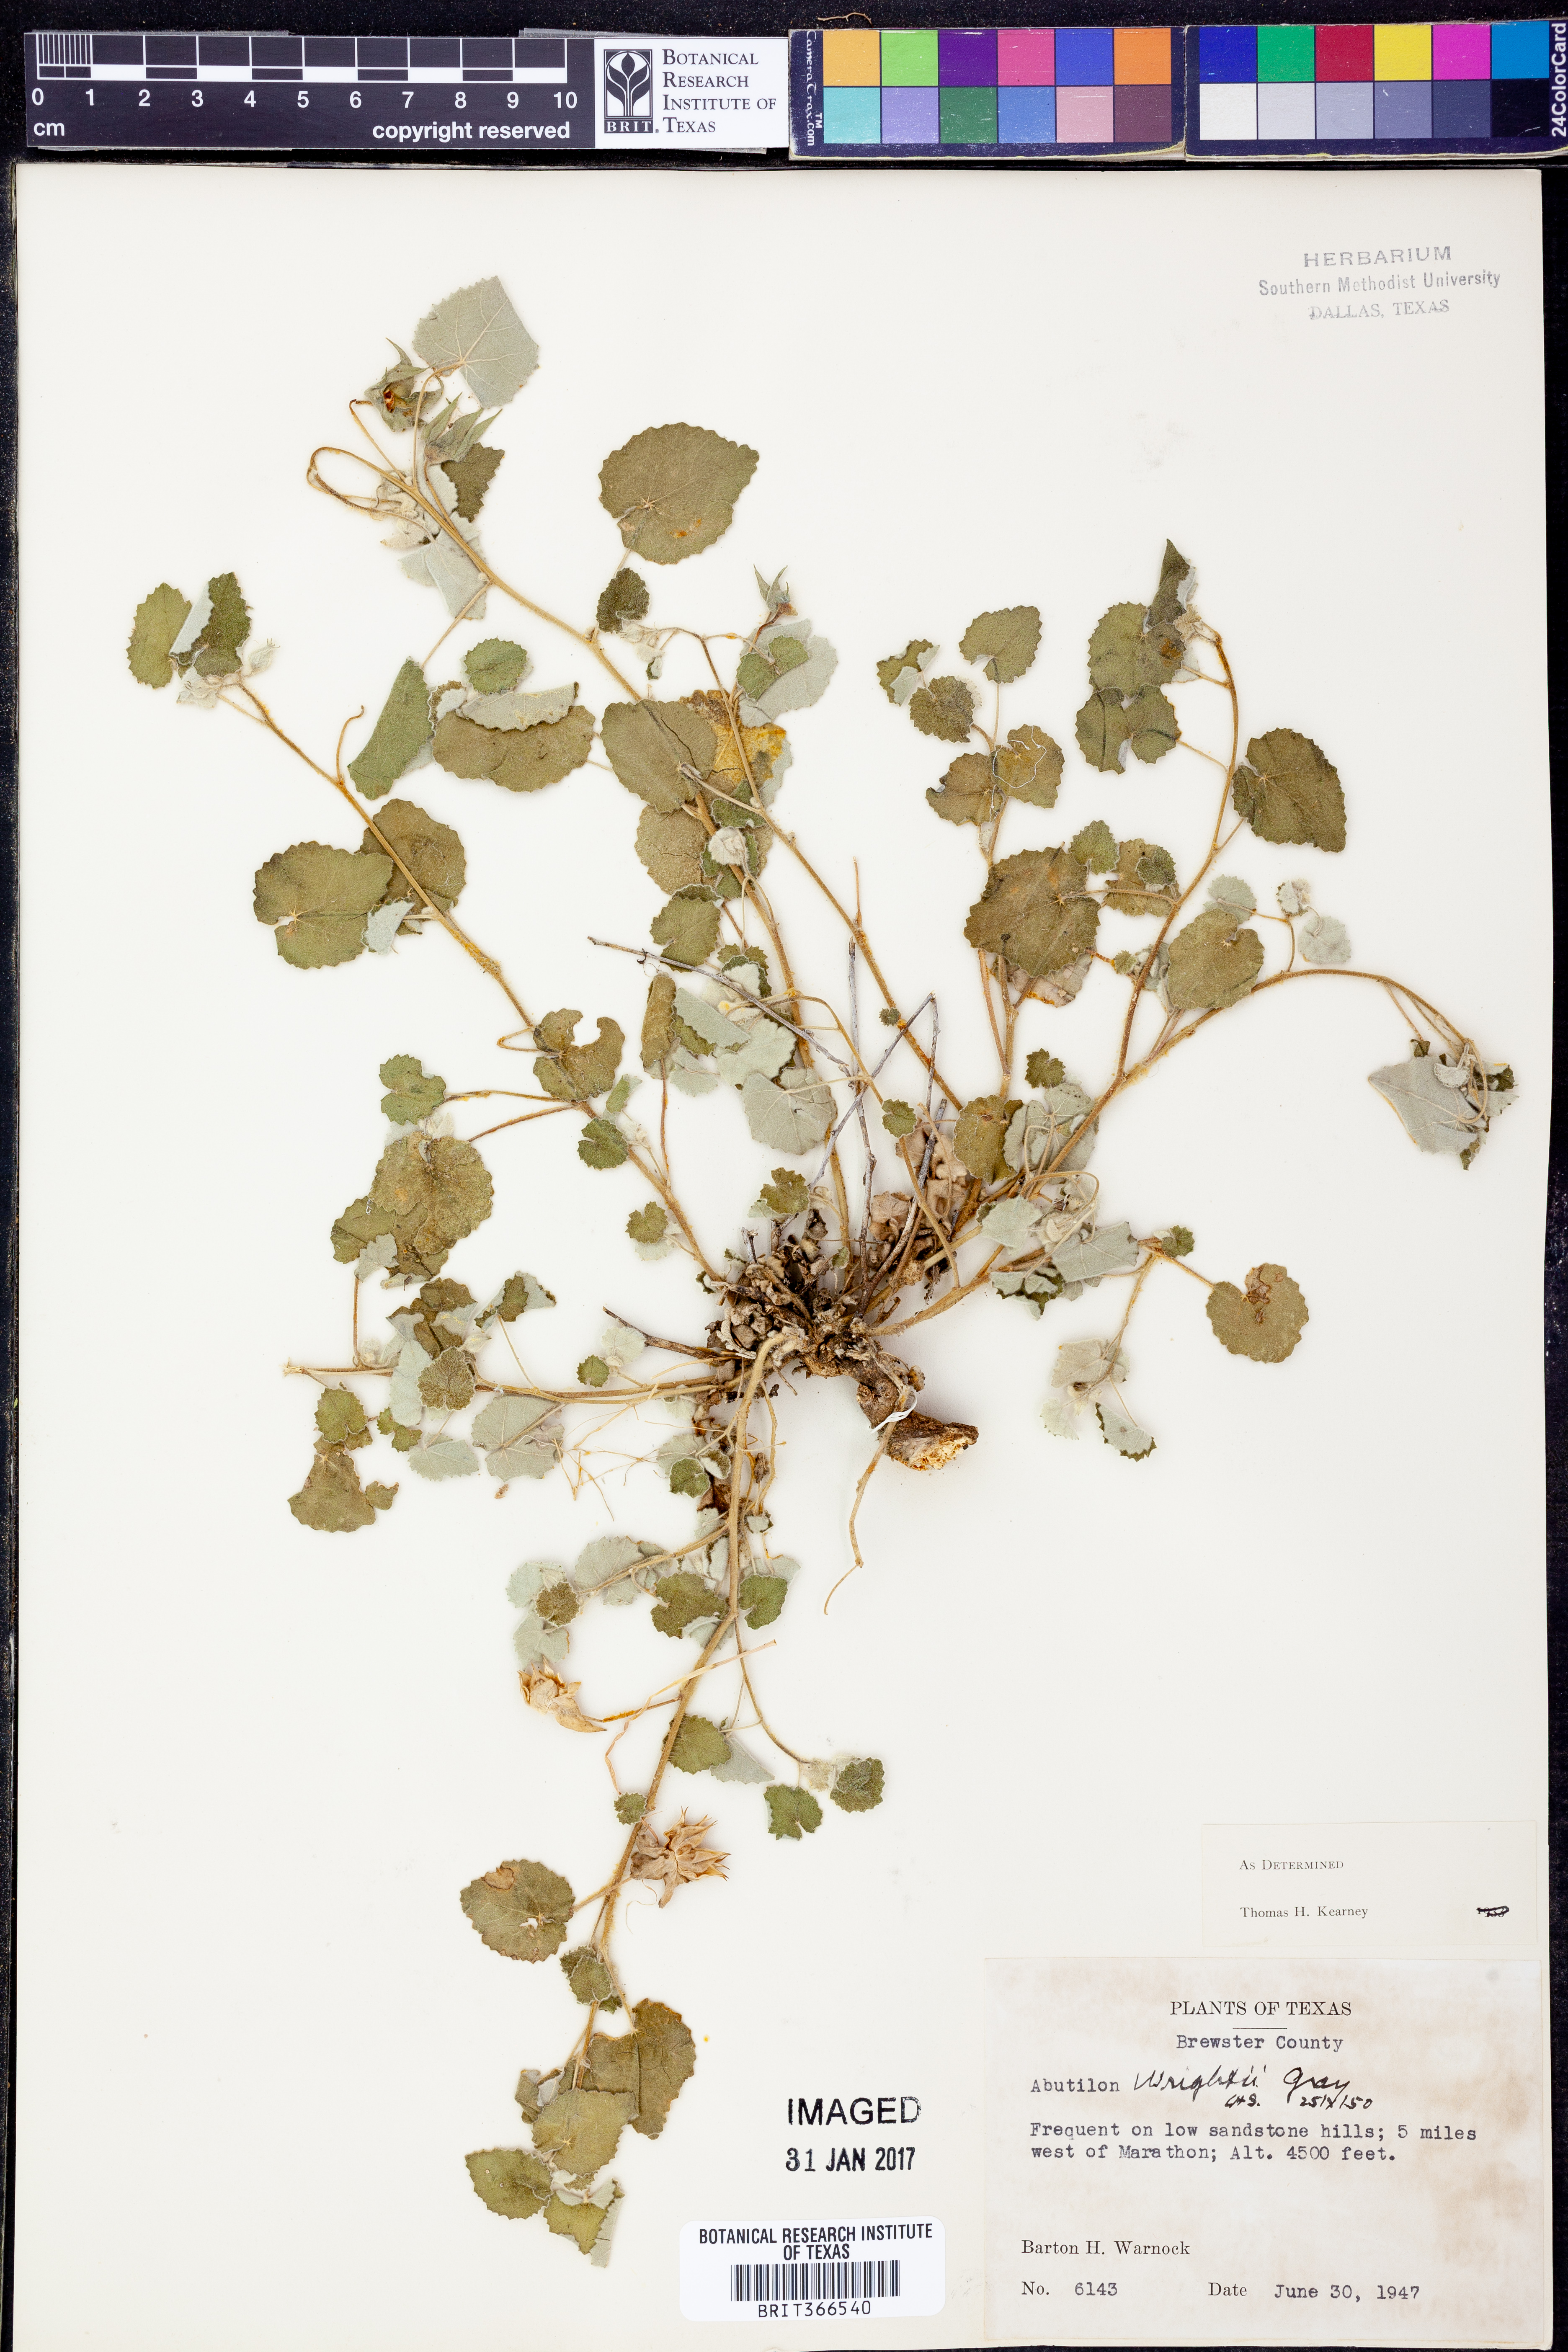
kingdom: Plantae
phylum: Tracheophyta
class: Magnoliopsida
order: Malvales
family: Malvaceae
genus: Abutilon
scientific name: Abutilon wrightii
